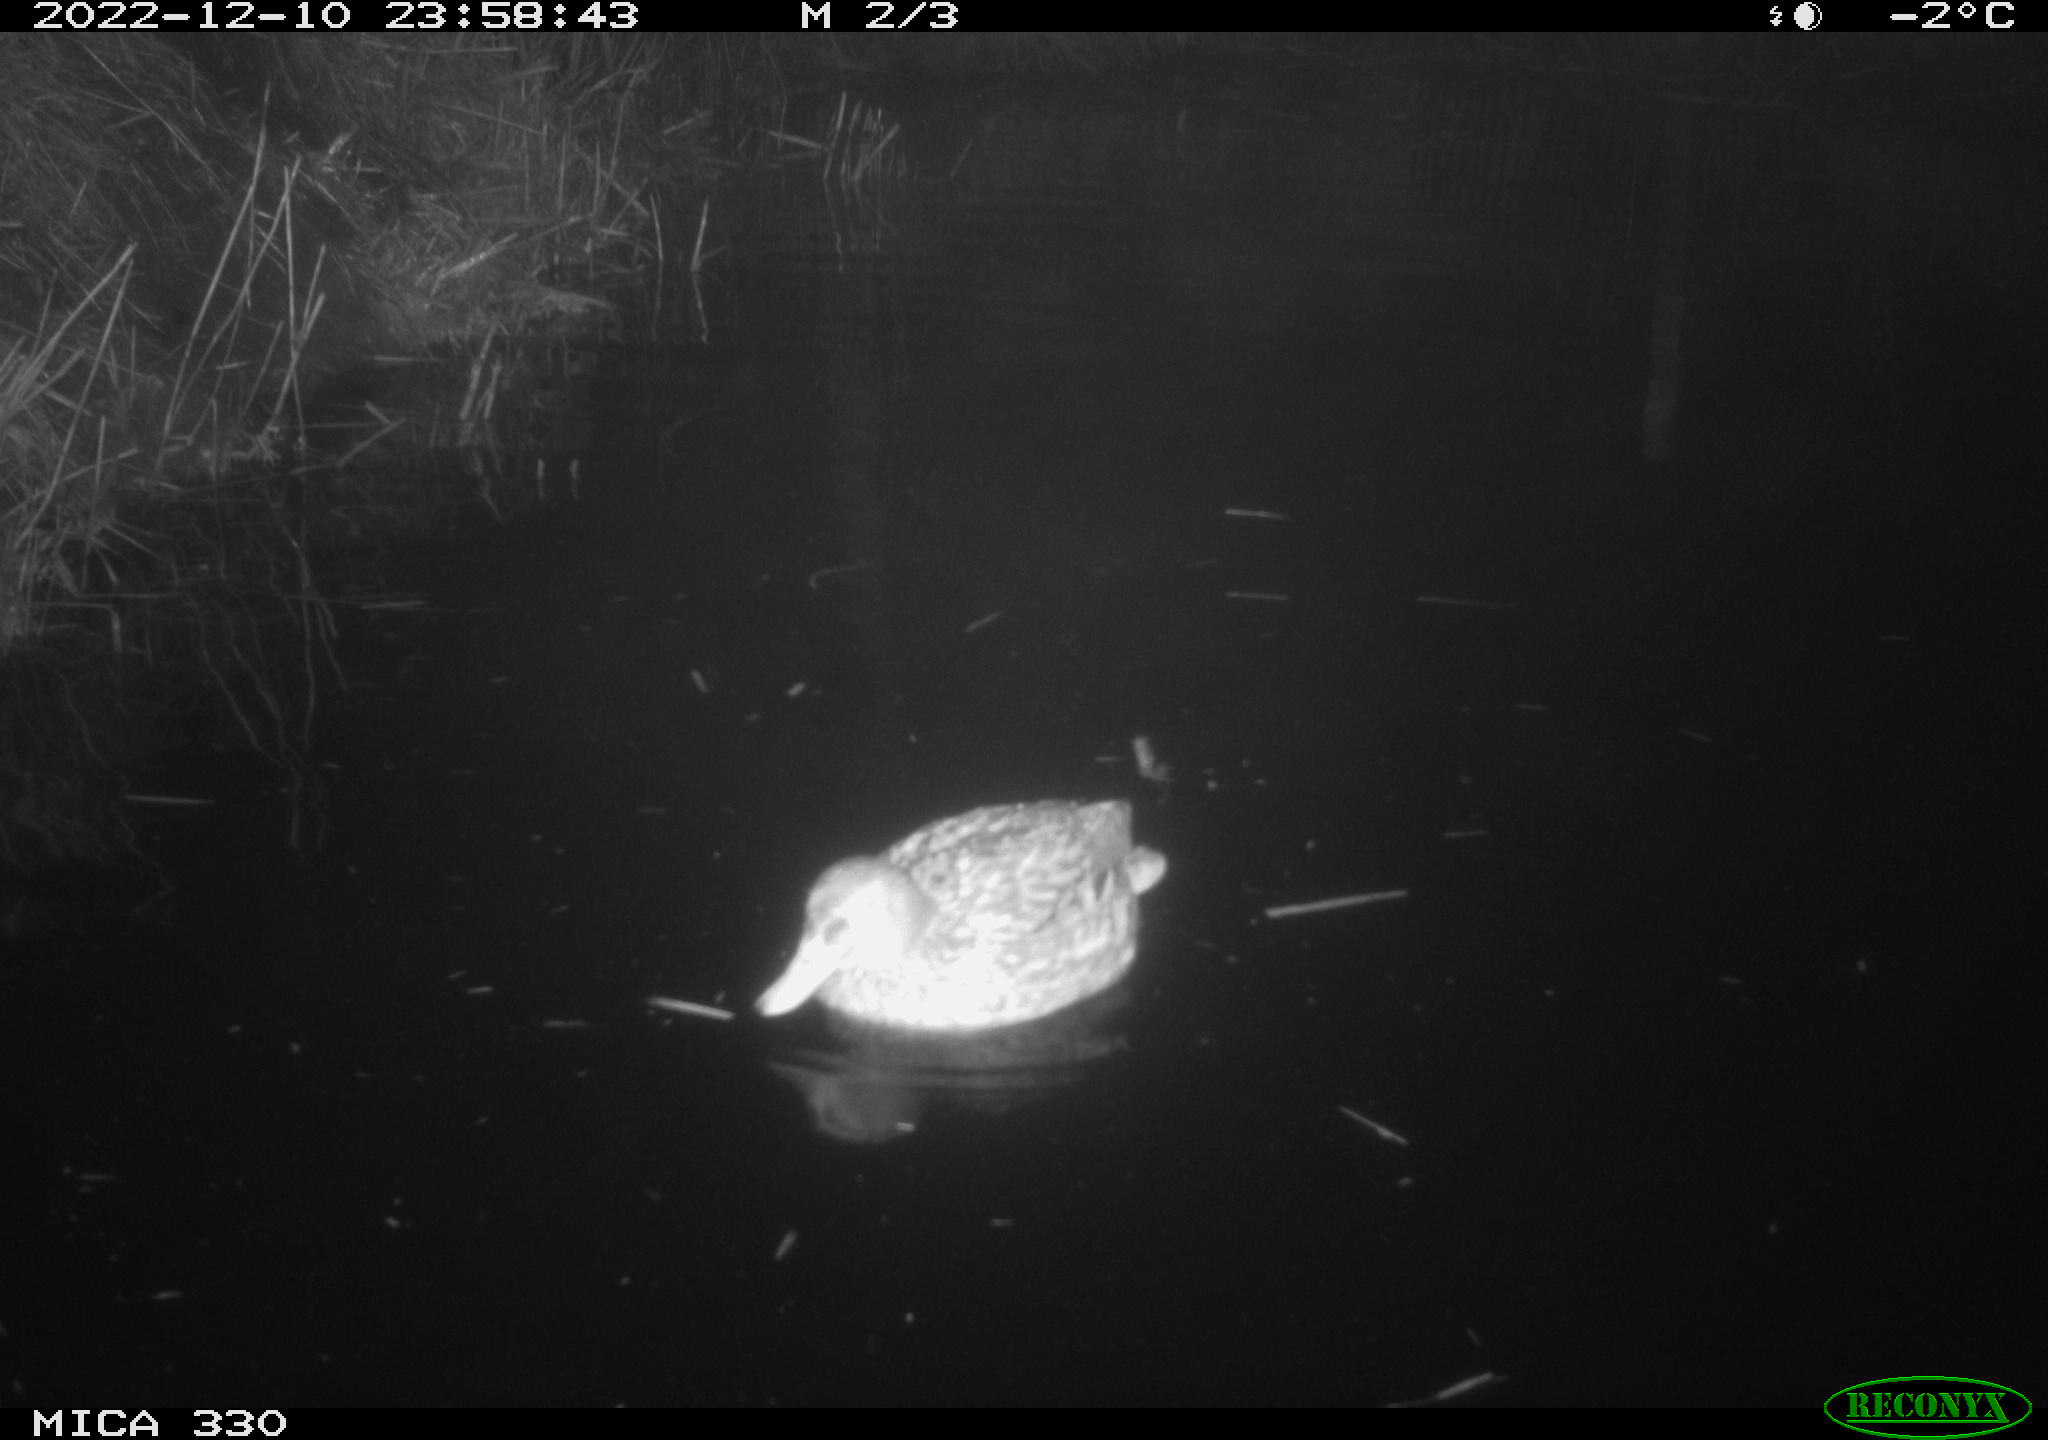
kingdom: Animalia
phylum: Chordata
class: Aves
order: Anseriformes
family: Anatidae
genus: Anas
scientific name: Anas
